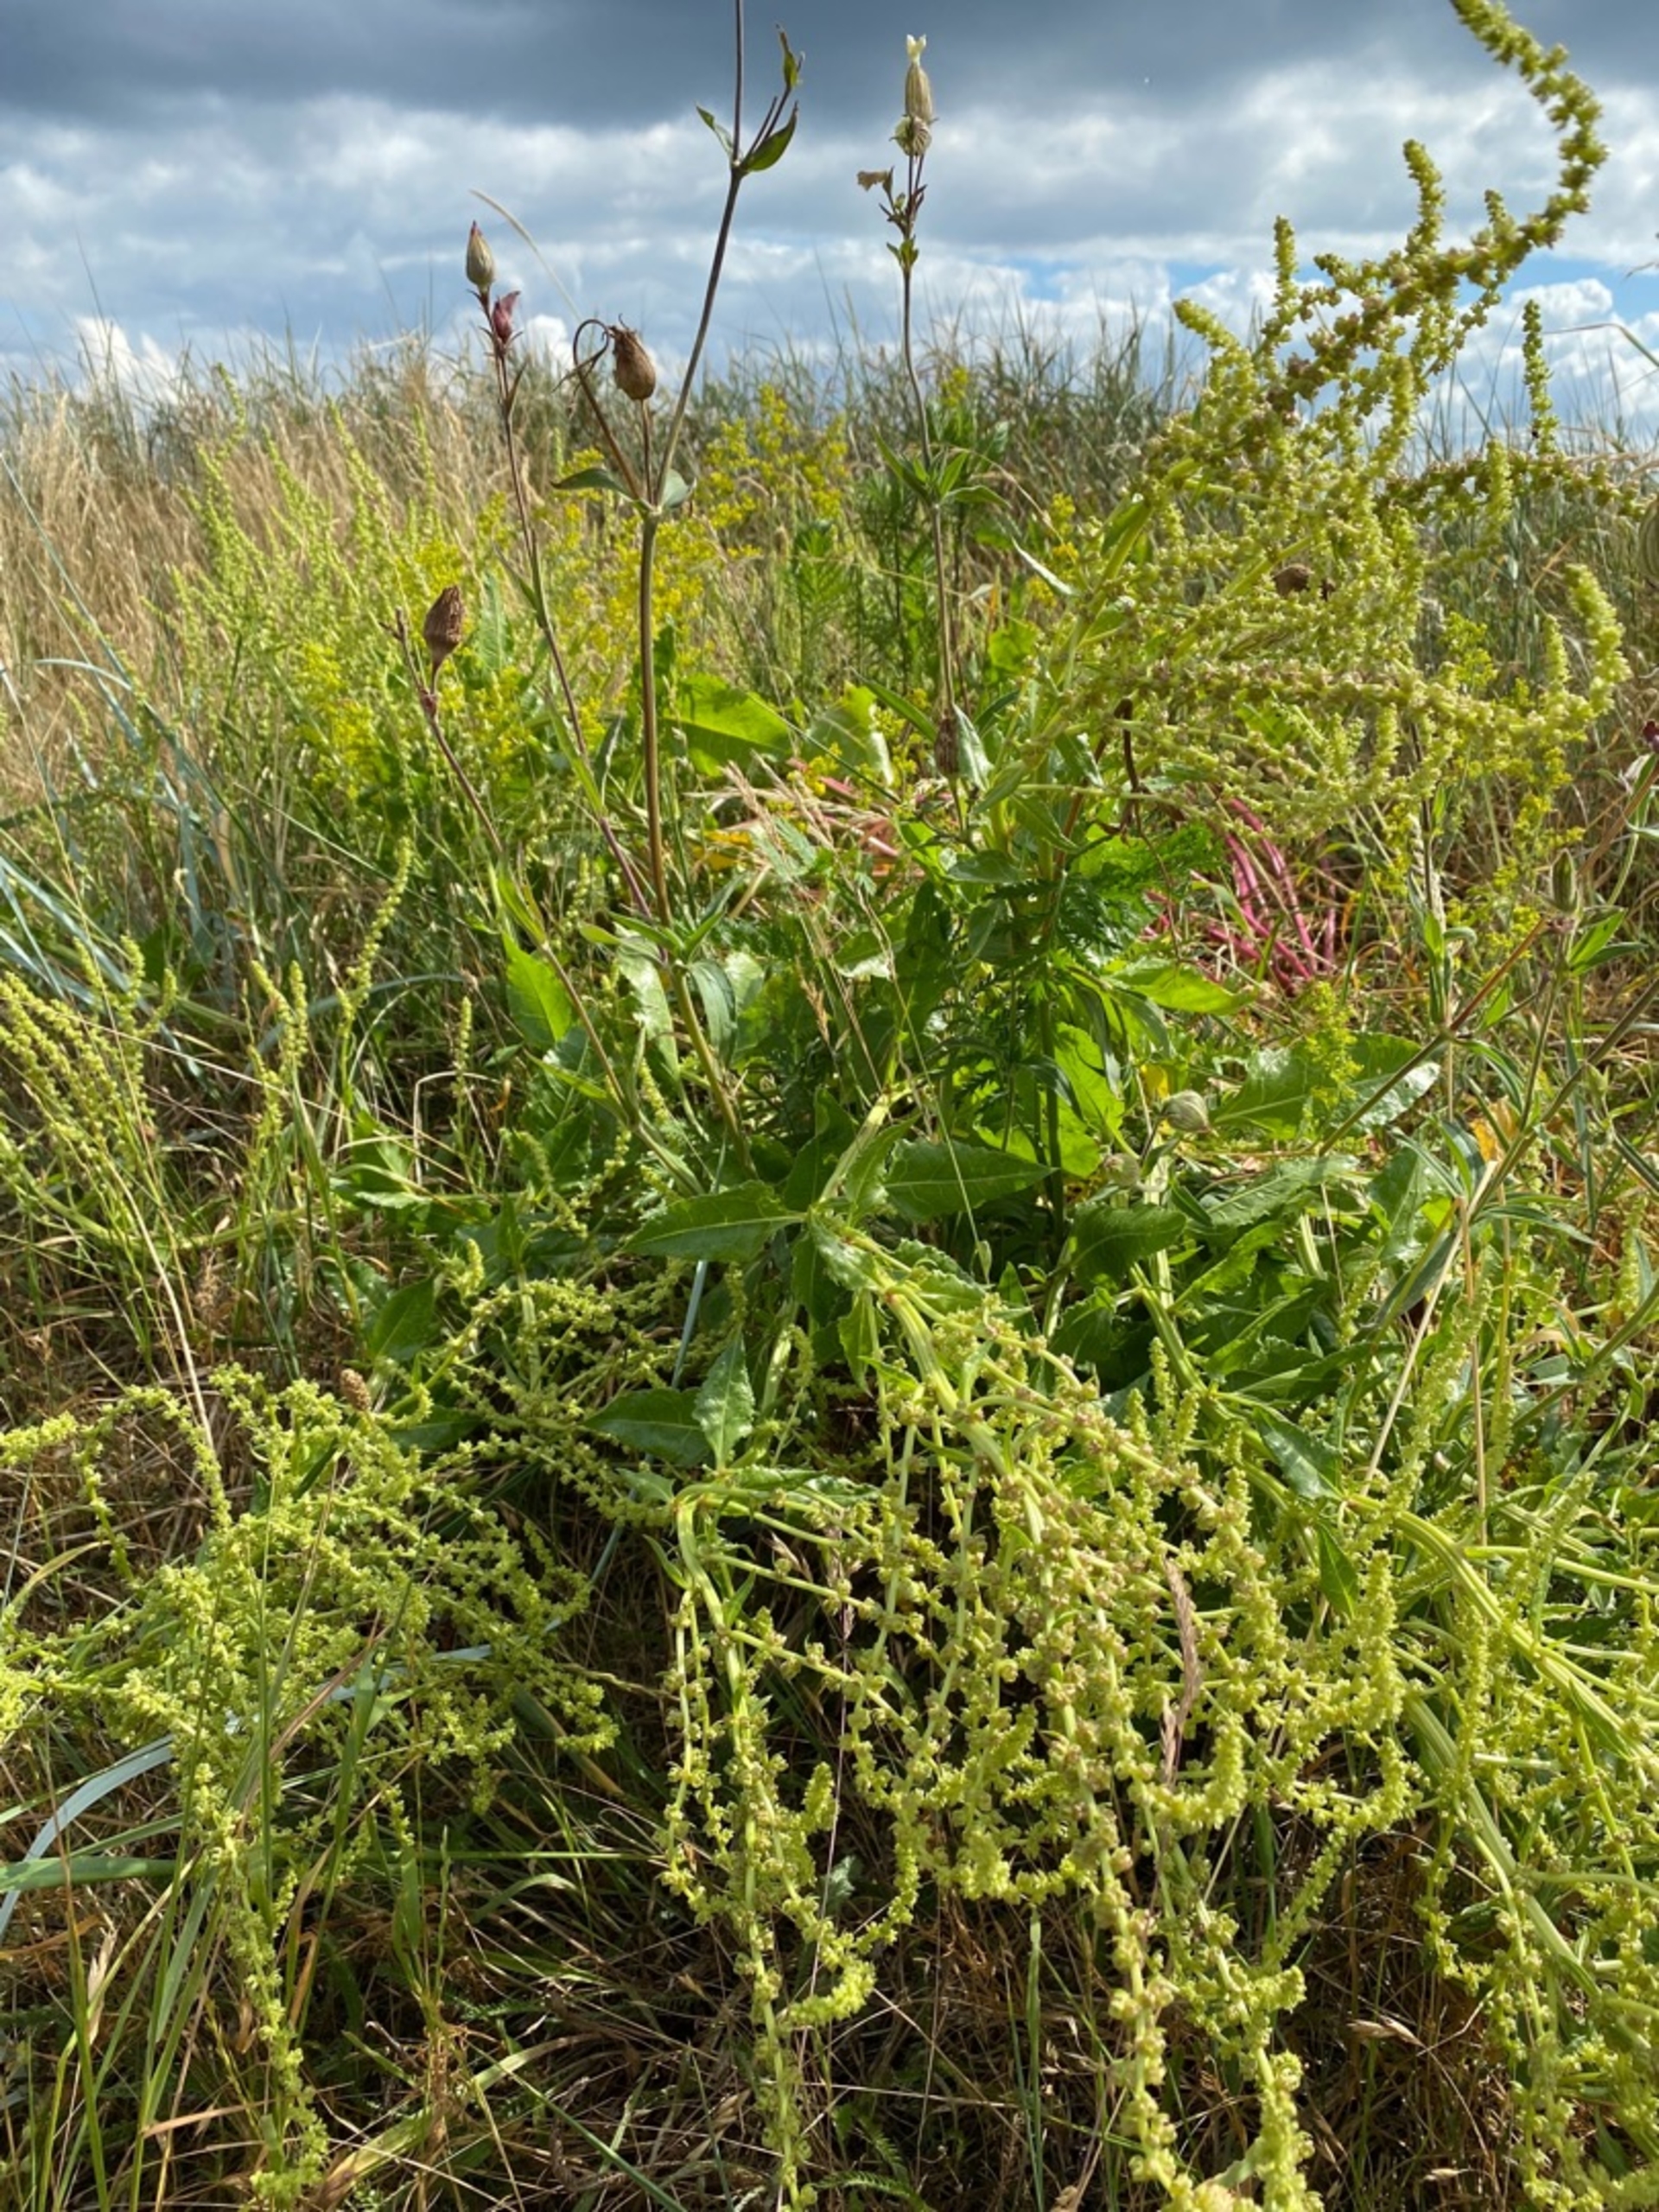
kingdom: Plantae
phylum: Tracheophyta
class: Magnoliopsida
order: Caryophyllales
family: Amaranthaceae
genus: Beta
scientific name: Beta maritima
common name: Strand-bede
